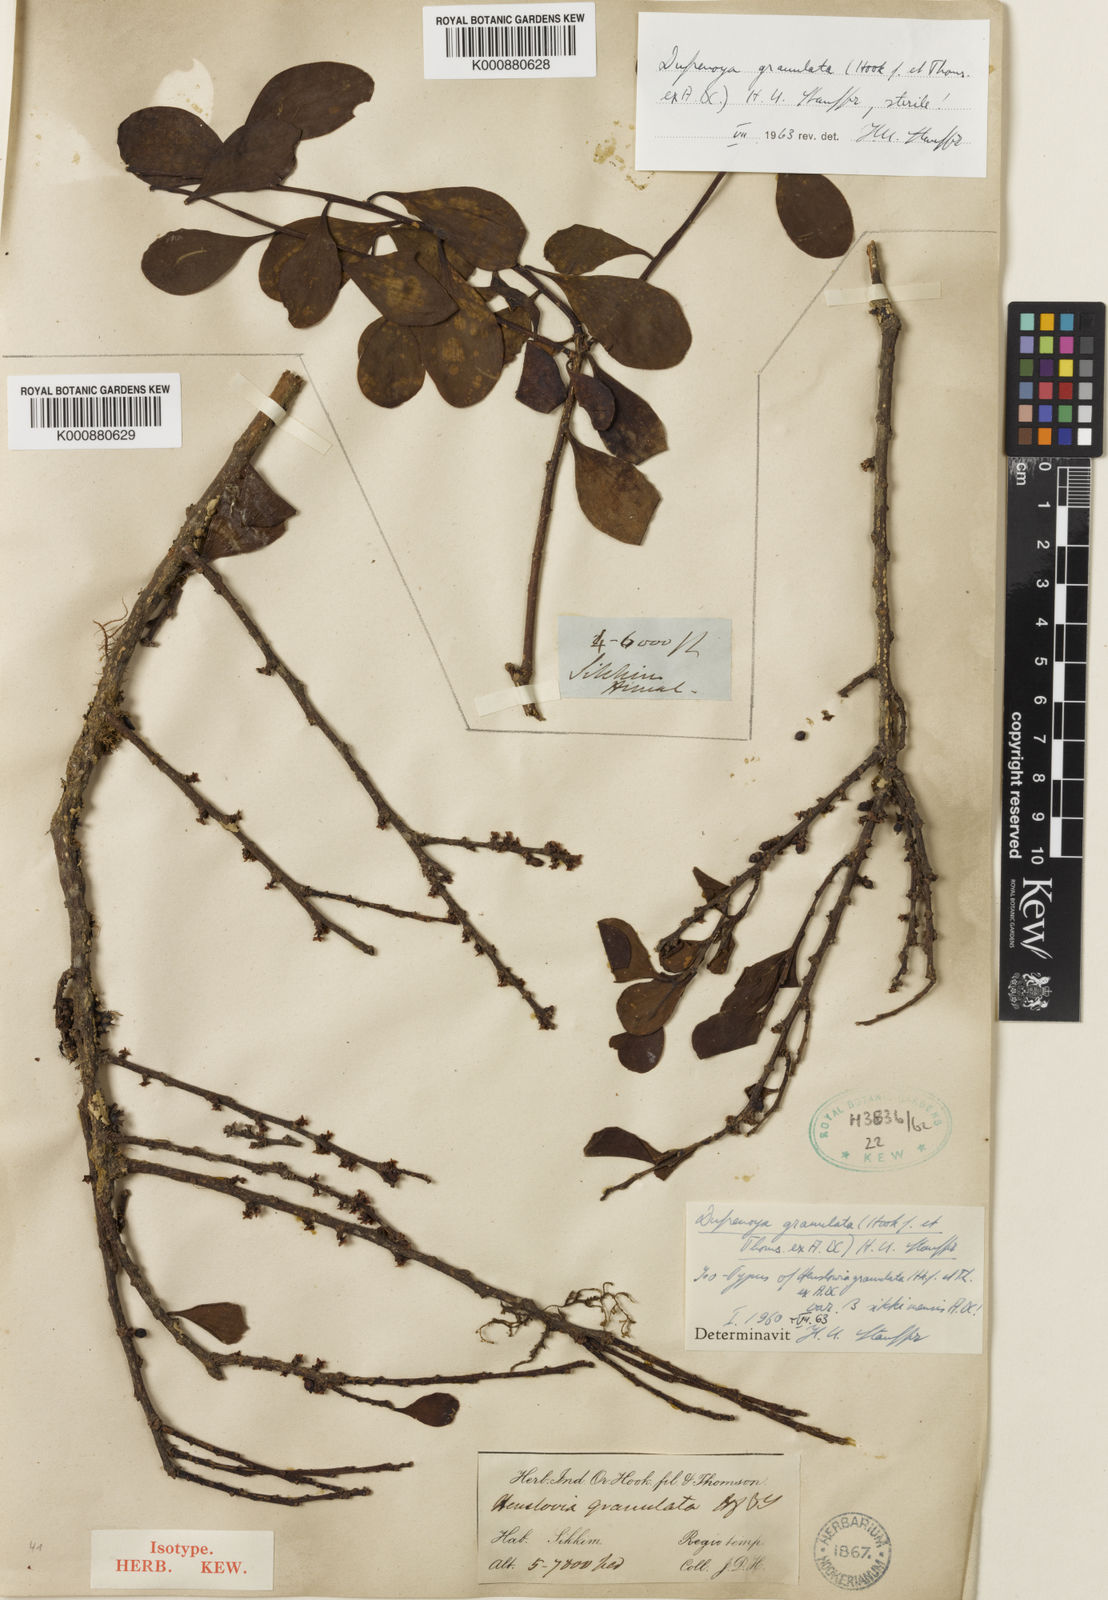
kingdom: Plantae
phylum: Tracheophyta
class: Magnoliopsida
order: Santalales
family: Amphorogynaceae
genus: Dendrotrophe
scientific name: Dendrotrophe granulata
